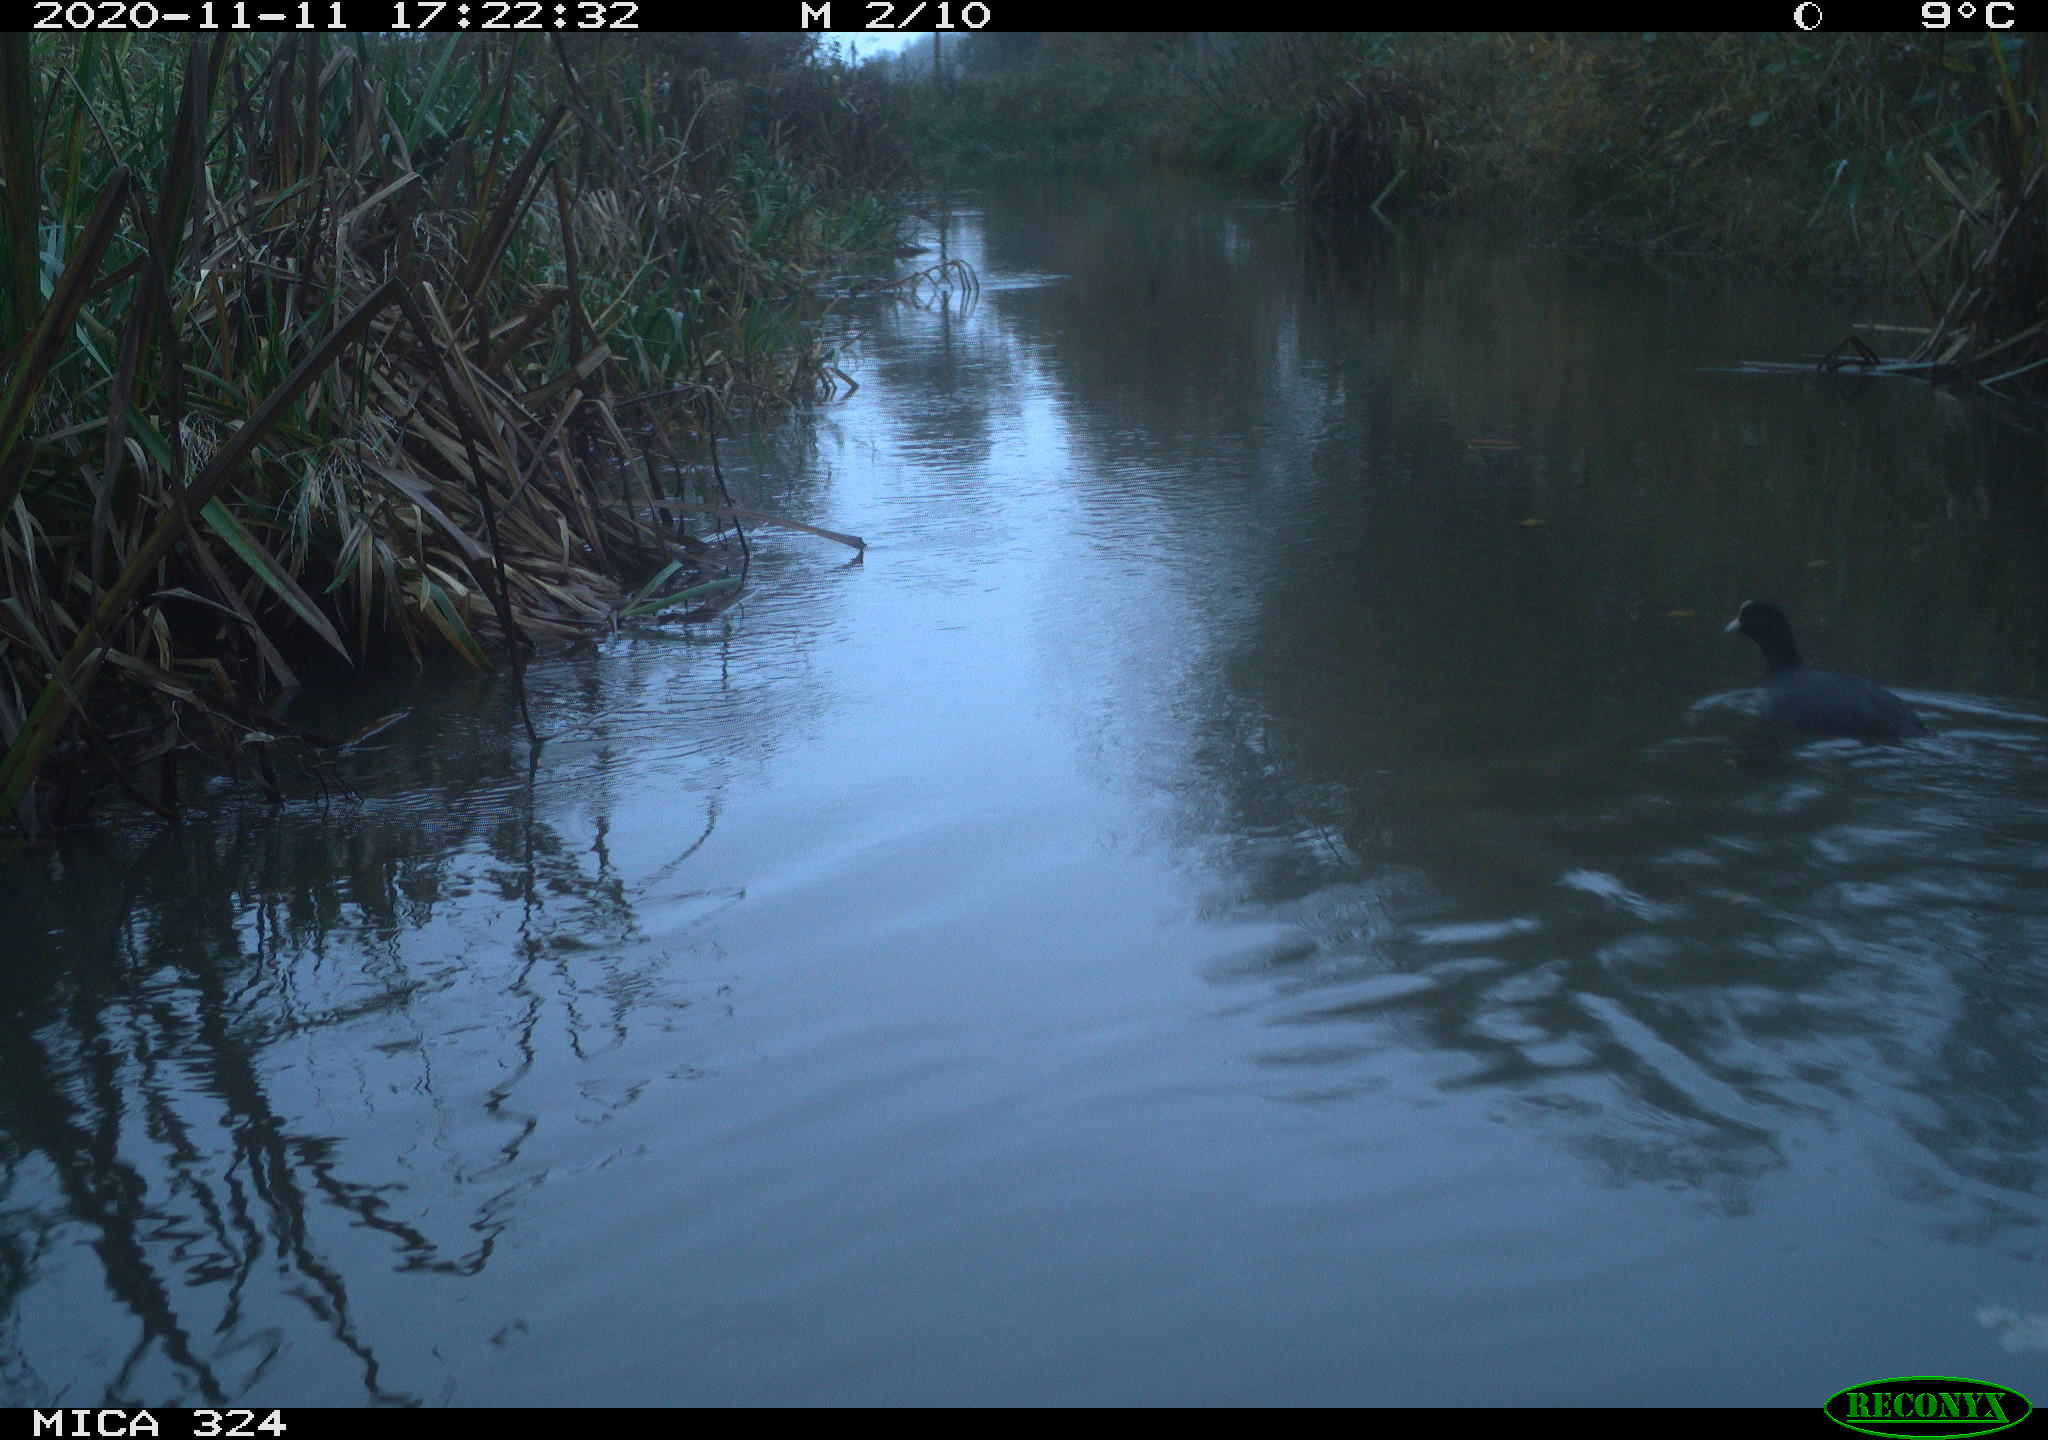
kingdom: Animalia
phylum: Chordata
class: Aves
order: Gruiformes
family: Rallidae
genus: Fulica
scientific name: Fulica atra
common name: Eurasian coot
